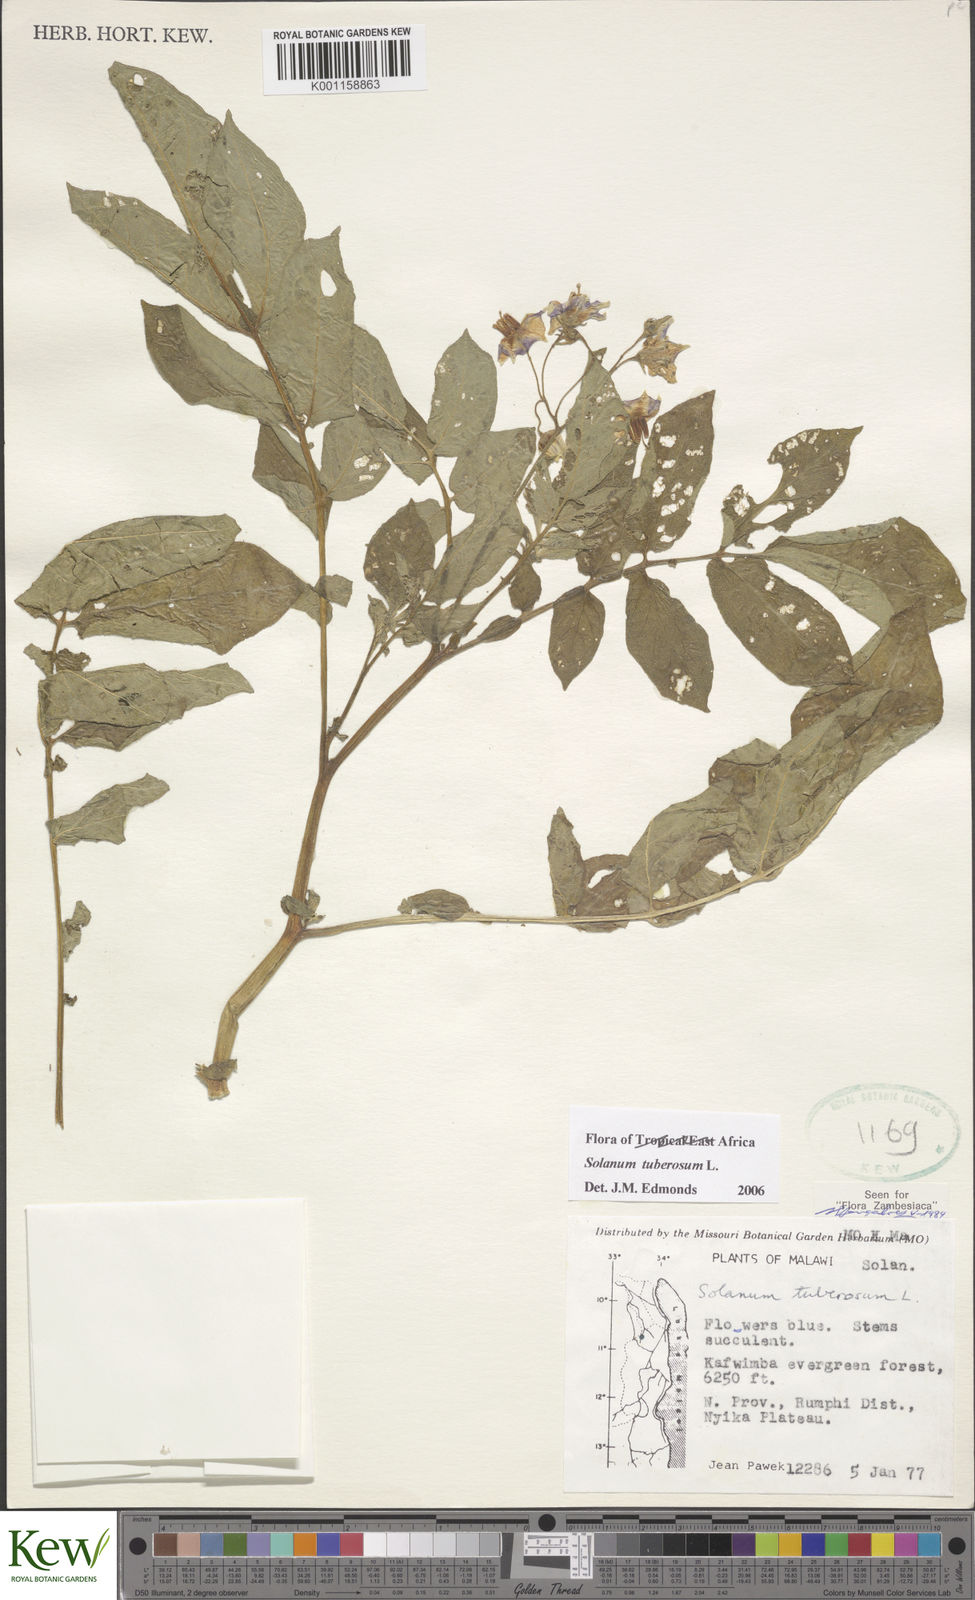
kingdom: Plantae
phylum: Tracheophyta
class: Magnoliopsida
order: Solanales
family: Solanaceae
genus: Solanum
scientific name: Solanum tuberosum
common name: Potato
